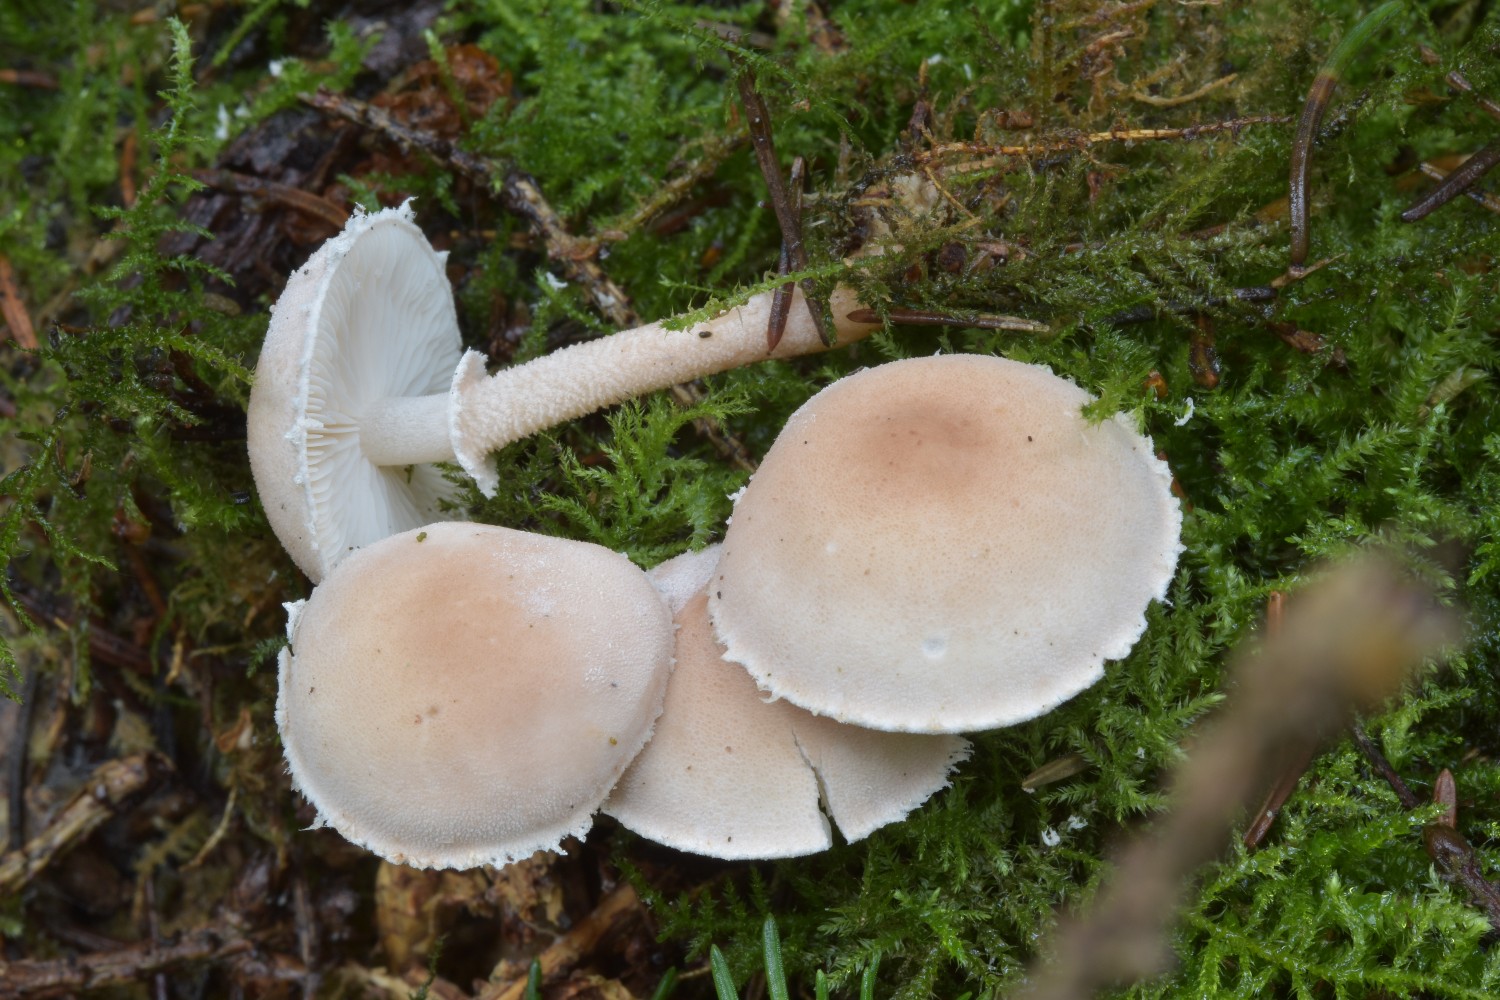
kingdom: Fungi
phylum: Basidiomycota
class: Agaricomycetes
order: Agaricales
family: Tricholomataceae
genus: Cystoderma
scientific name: Cystoderma carcharias
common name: rødgrå grynhat
